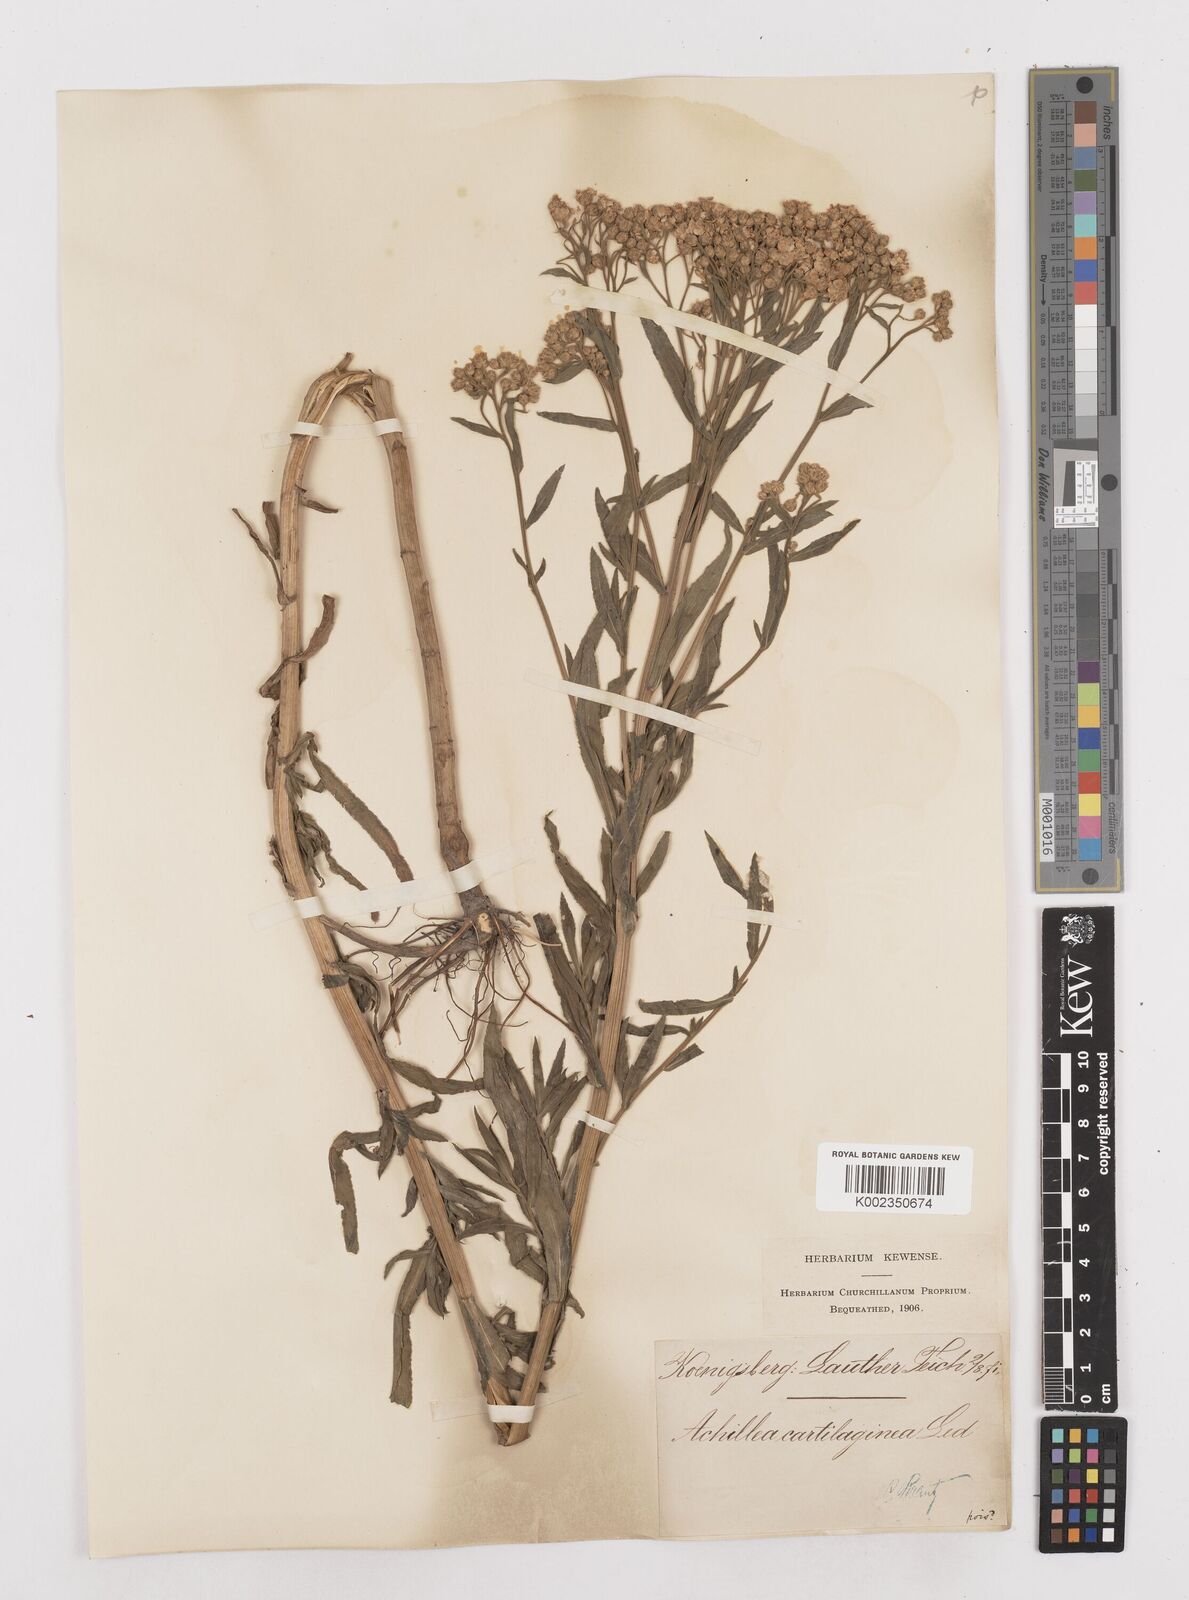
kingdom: Plantae
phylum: Tracheophyta
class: Magnoliopsida
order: Asterales
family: Asteraceae
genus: Achillea
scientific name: Achillea salicifolia
